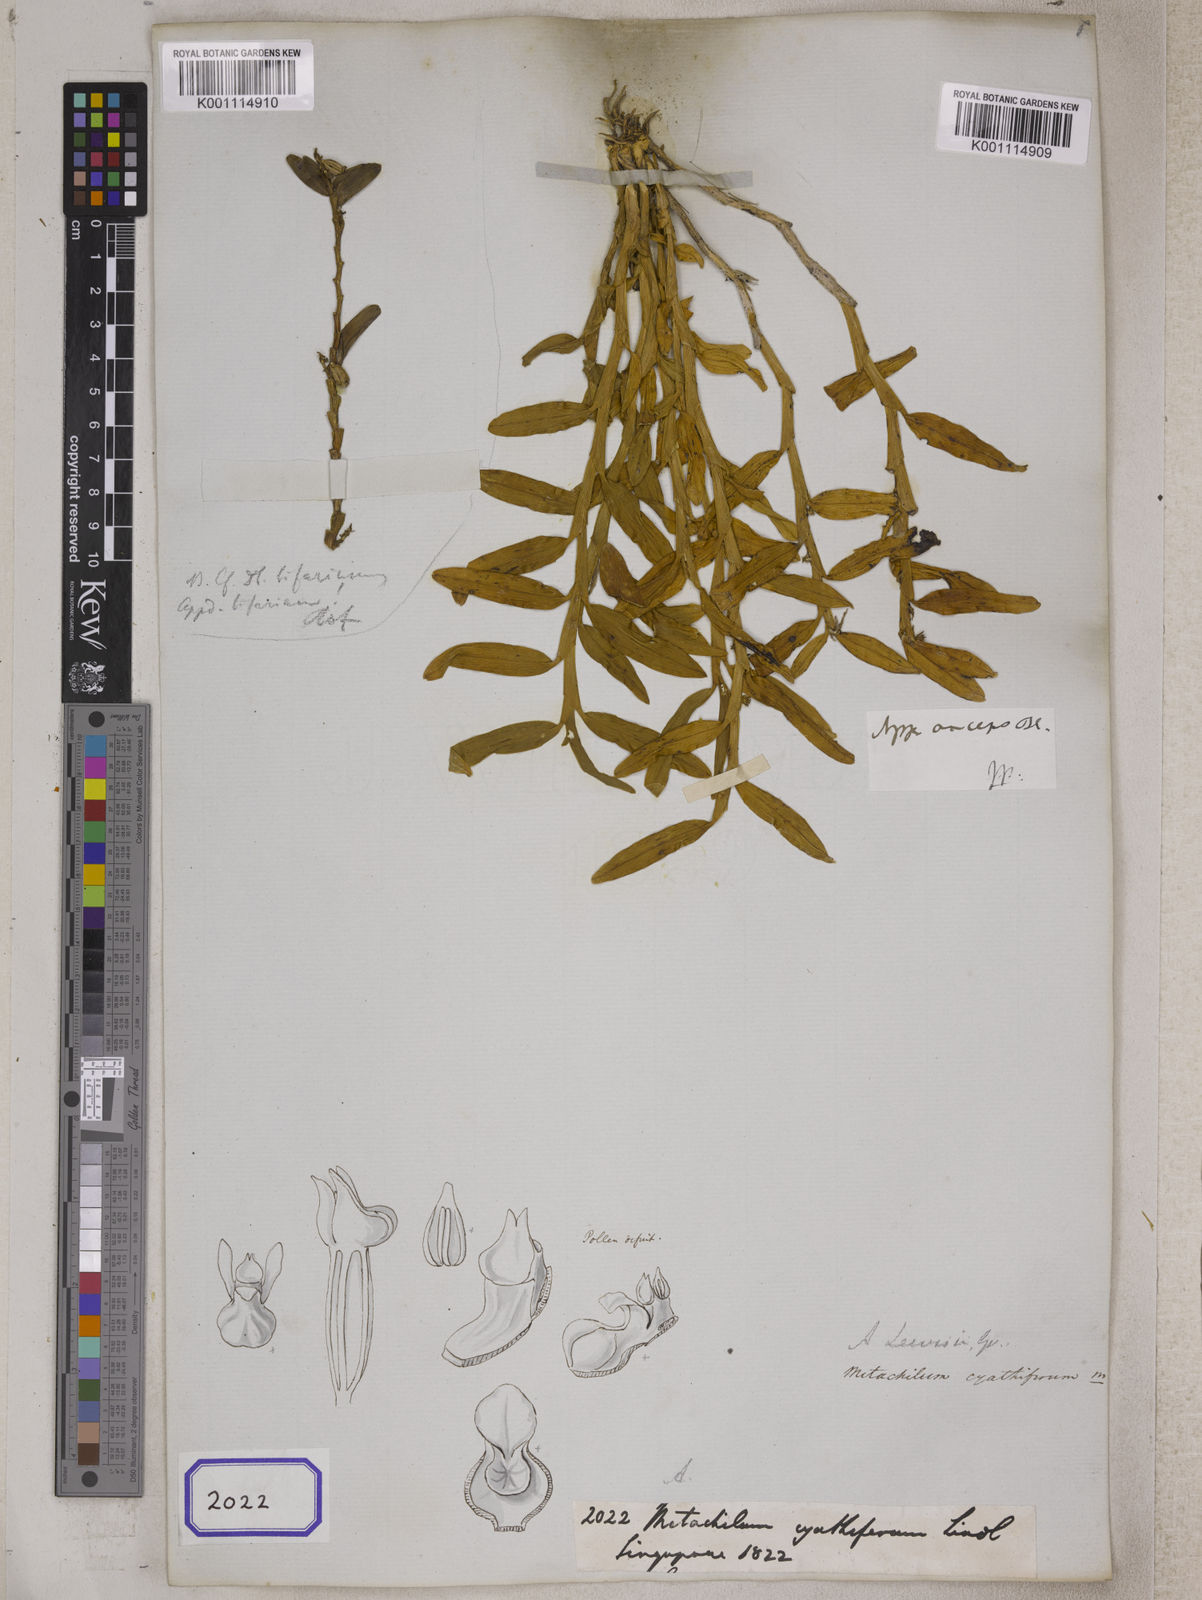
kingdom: Plantae
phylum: Tracheophyta
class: Liliopsida
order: Asparagales
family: Orchidaceae
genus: Appendicula
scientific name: Appendicula
